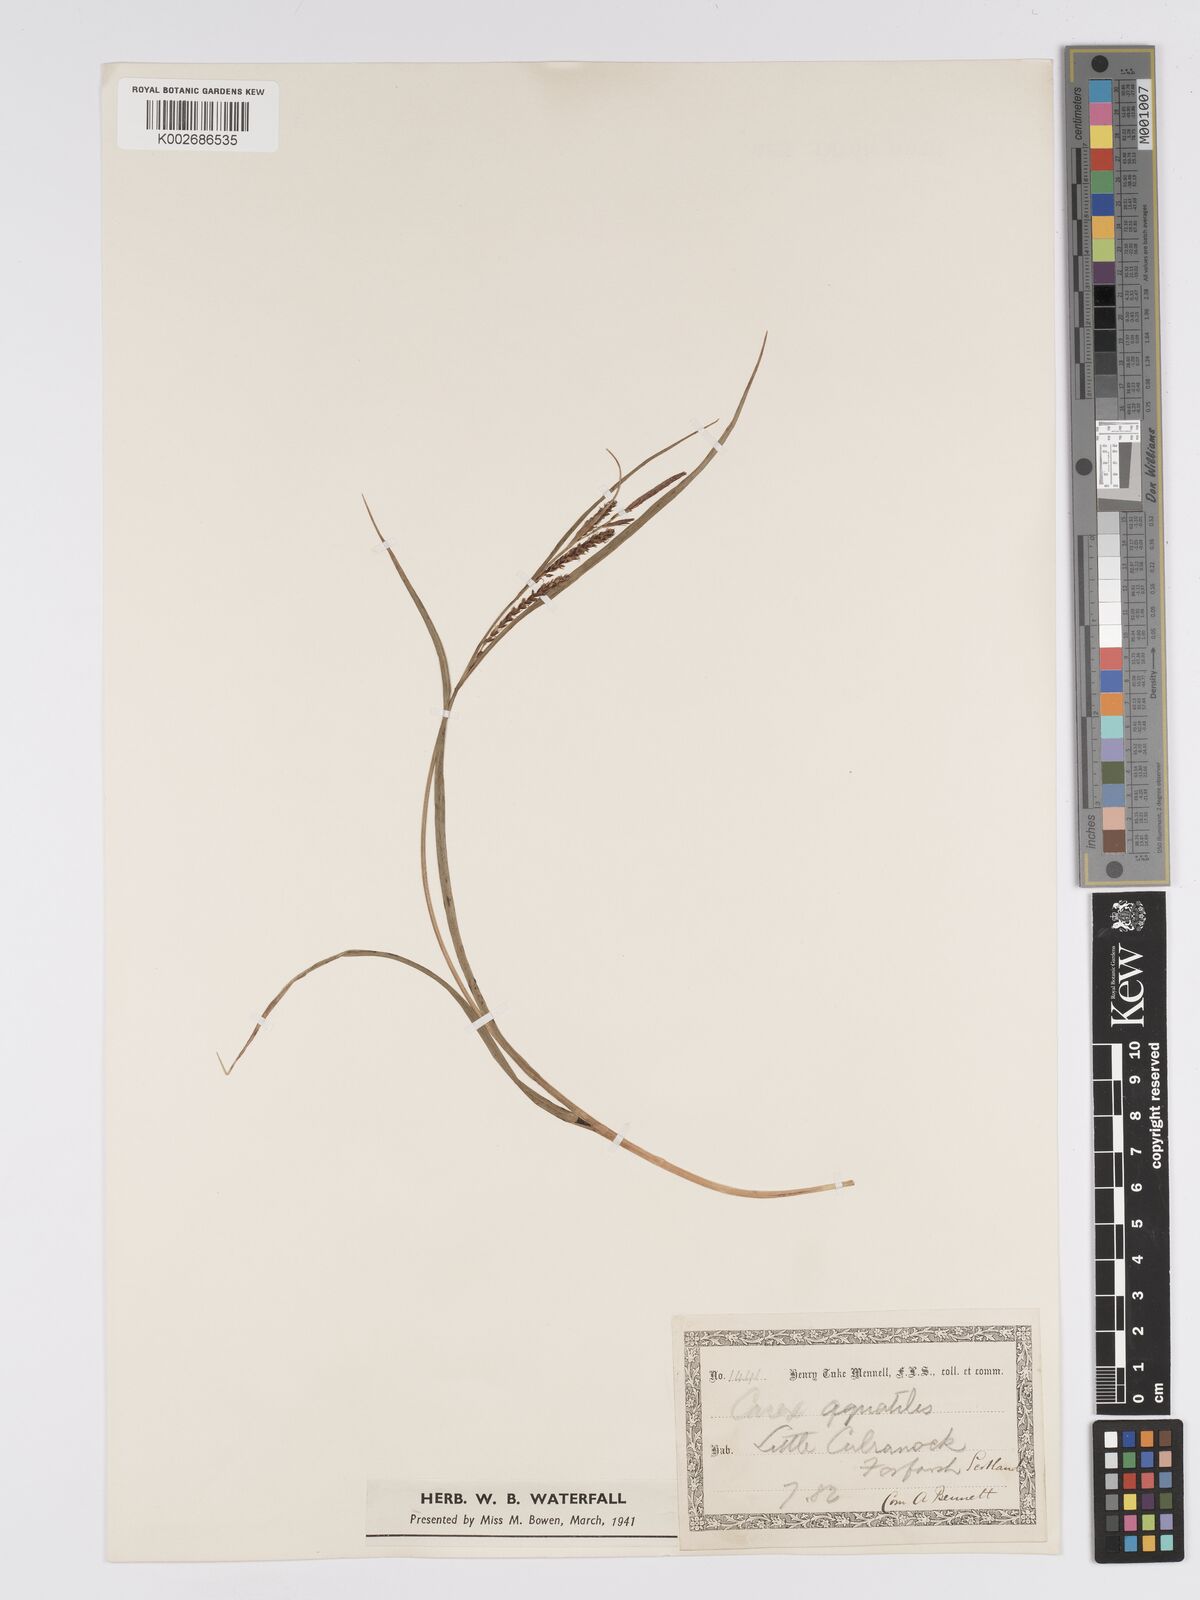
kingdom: Plantae
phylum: Tracheophyta
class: Liliopsida
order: Poales
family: Cyperaceae
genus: Carex
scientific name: Carex aquatilis
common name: Water sedge
